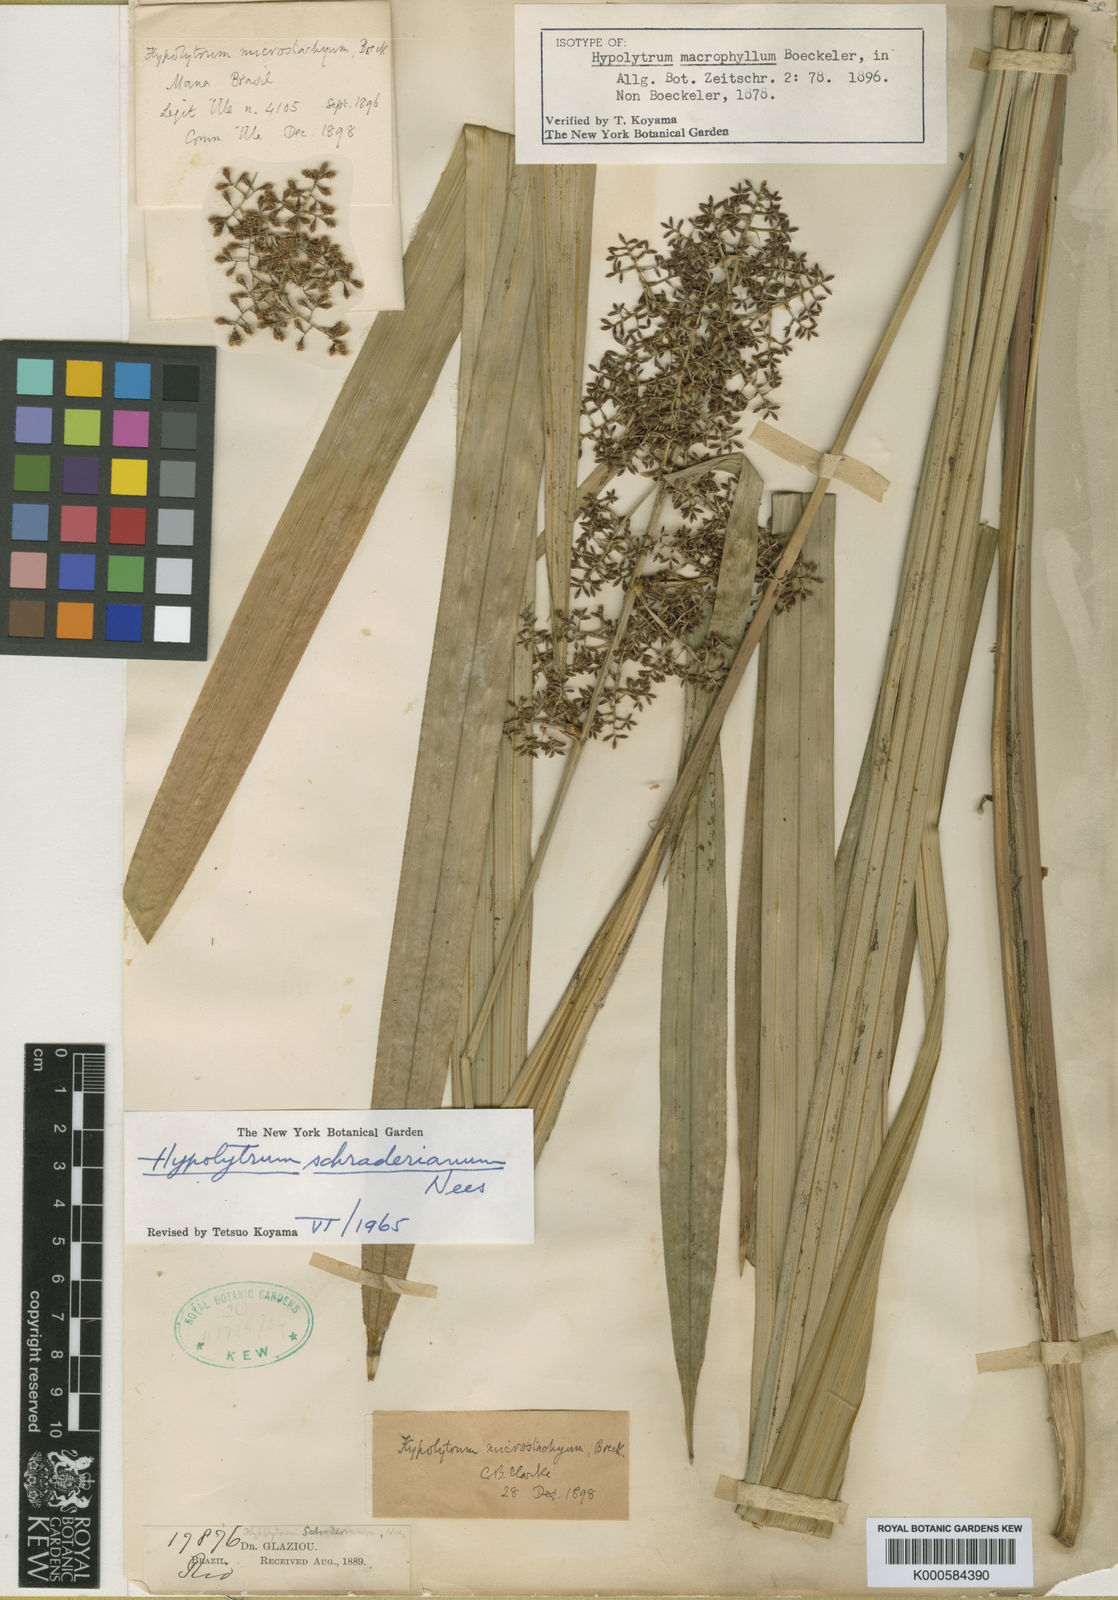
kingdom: Plantae
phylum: Tracheophyta
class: Liliopsida
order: Poales
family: Cyperaceae
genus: Hypolytrum
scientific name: Hypolytrum schraderianum
